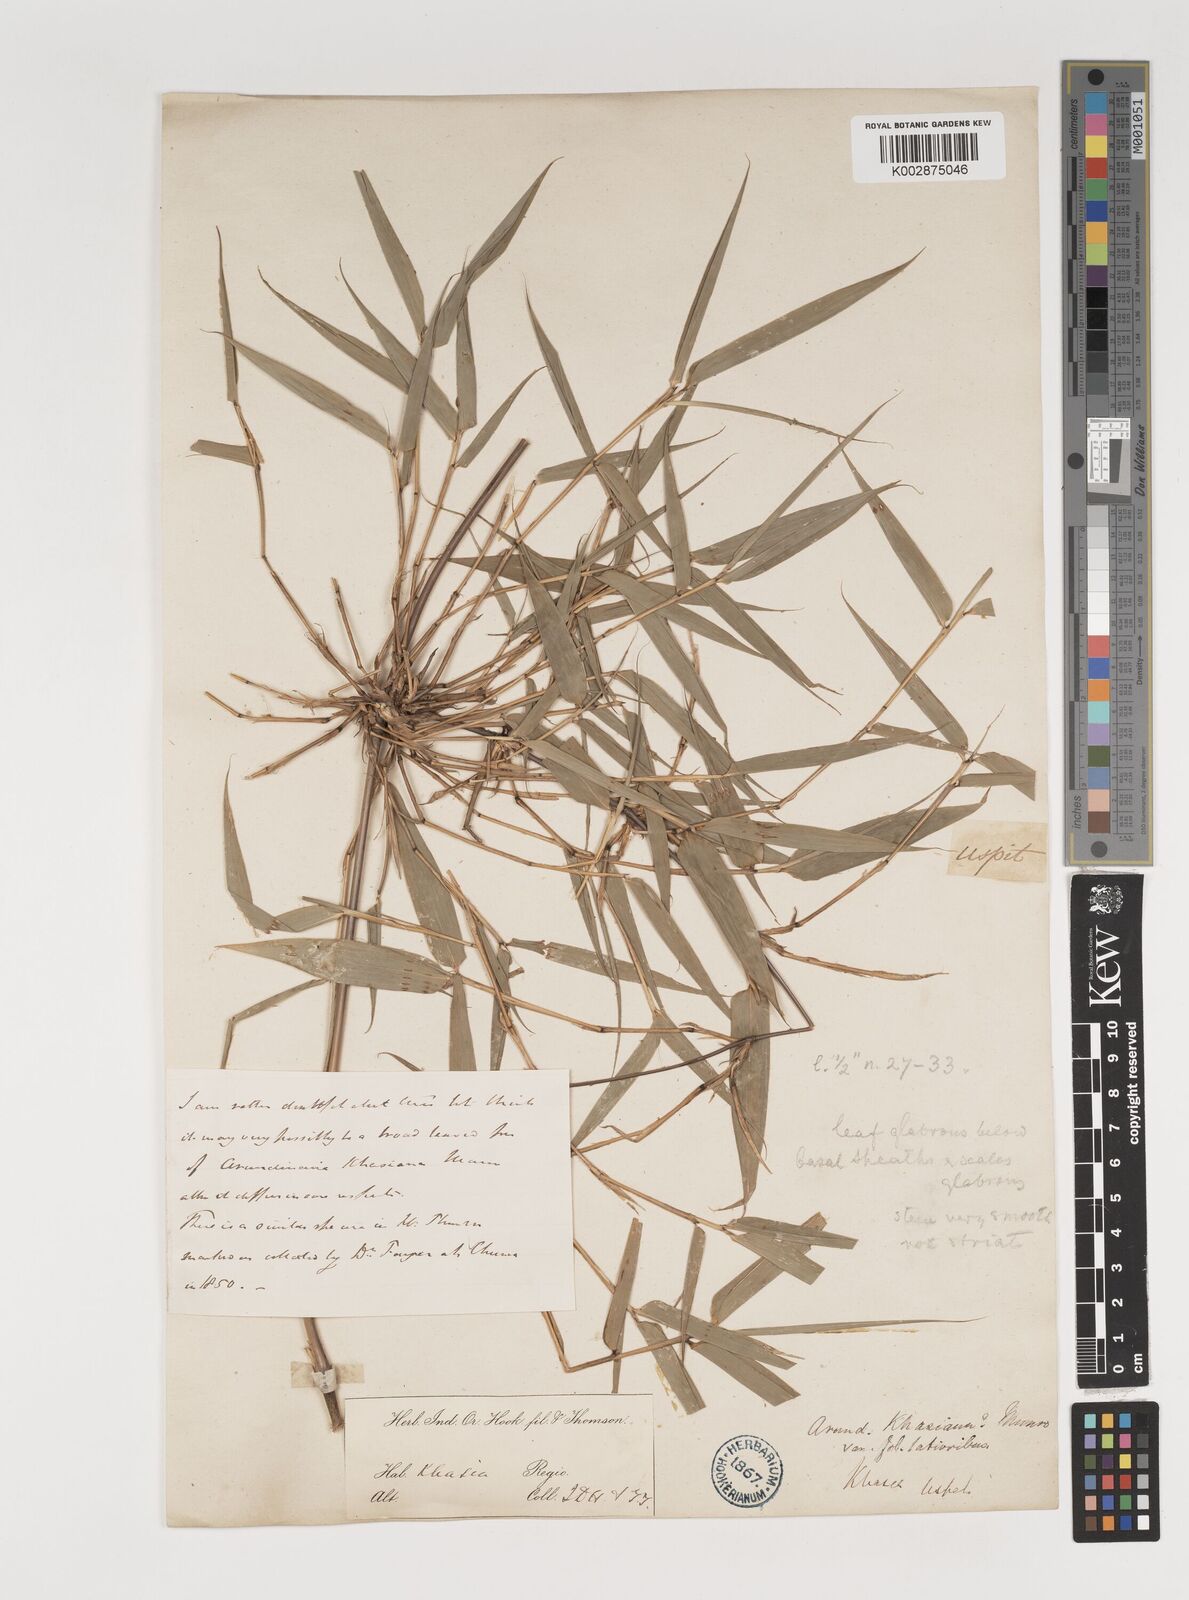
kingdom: Plantae
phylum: Tracheophyta
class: Liliopsida
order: Poales
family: Poaceae
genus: Neomicrocalamus
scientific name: Neomicrocalamus prainii
